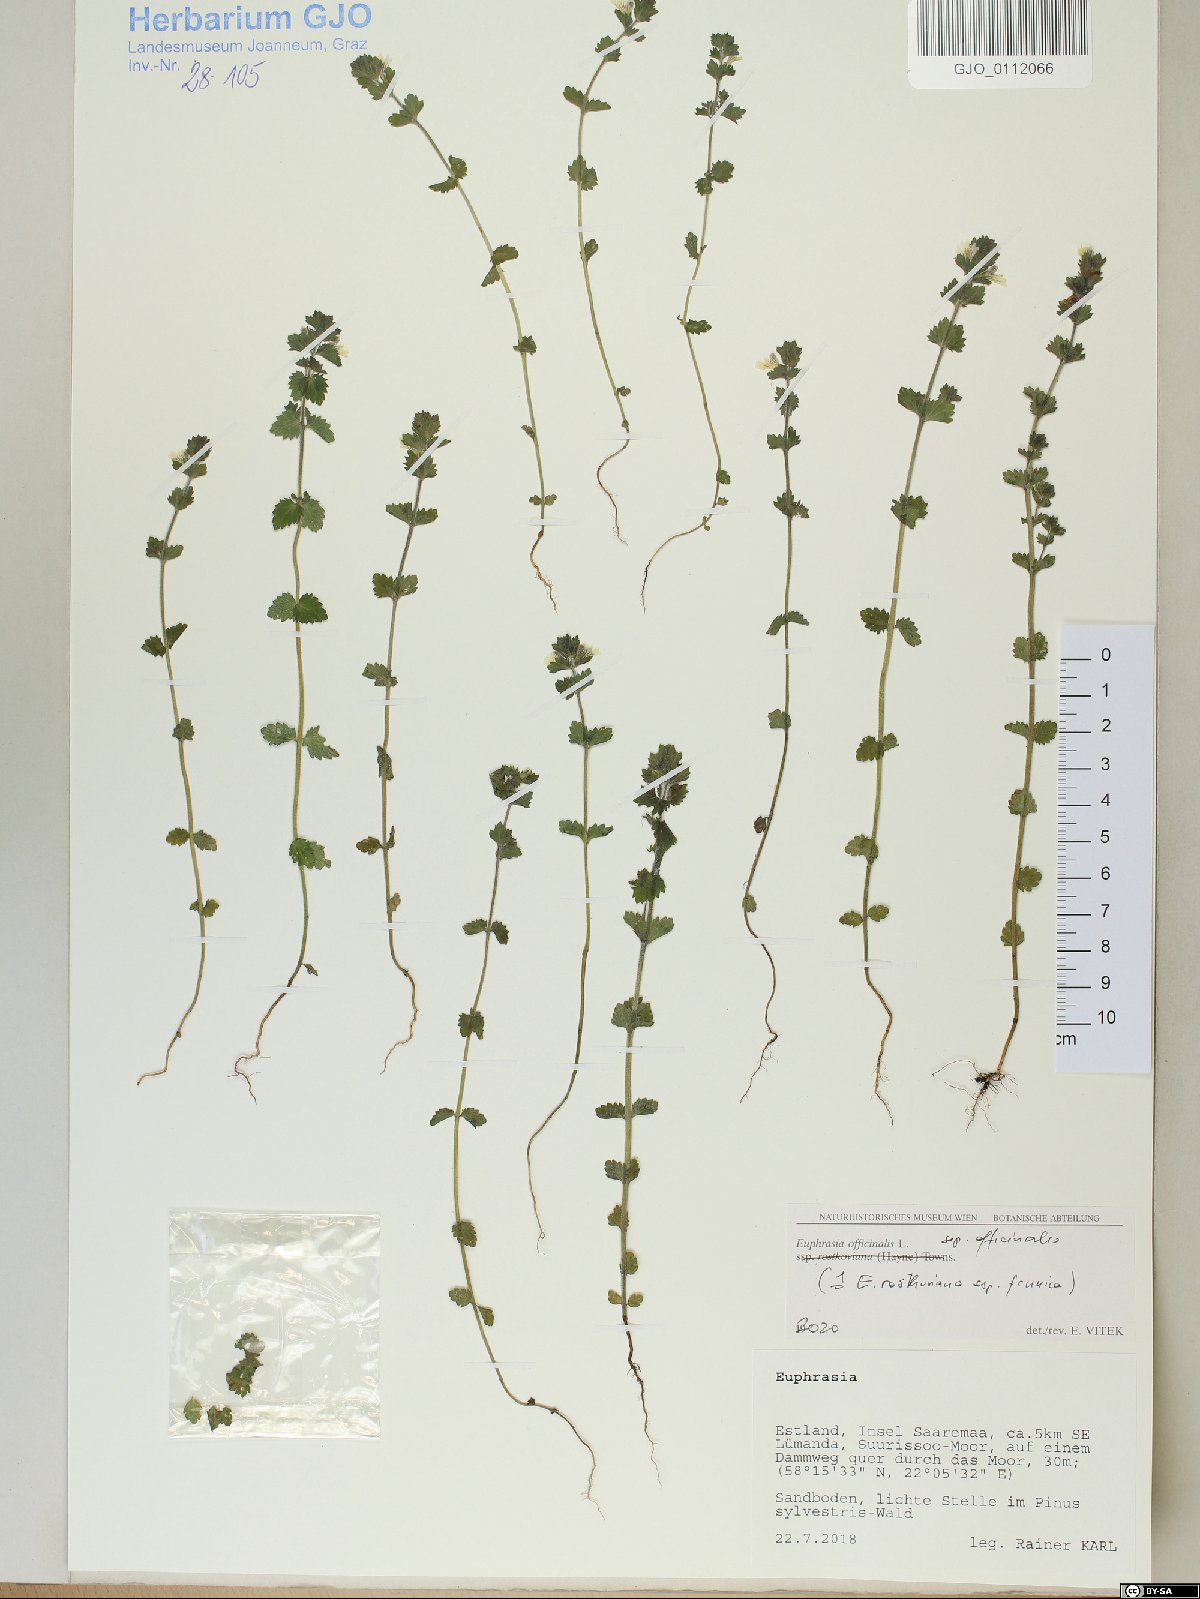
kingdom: Plantae
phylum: Tracheophyta
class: Magnoliopsida
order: Lamiales
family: Orobanchaceae
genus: Euphrasia
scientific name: Euphrasia officinalis
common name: Eyebright
